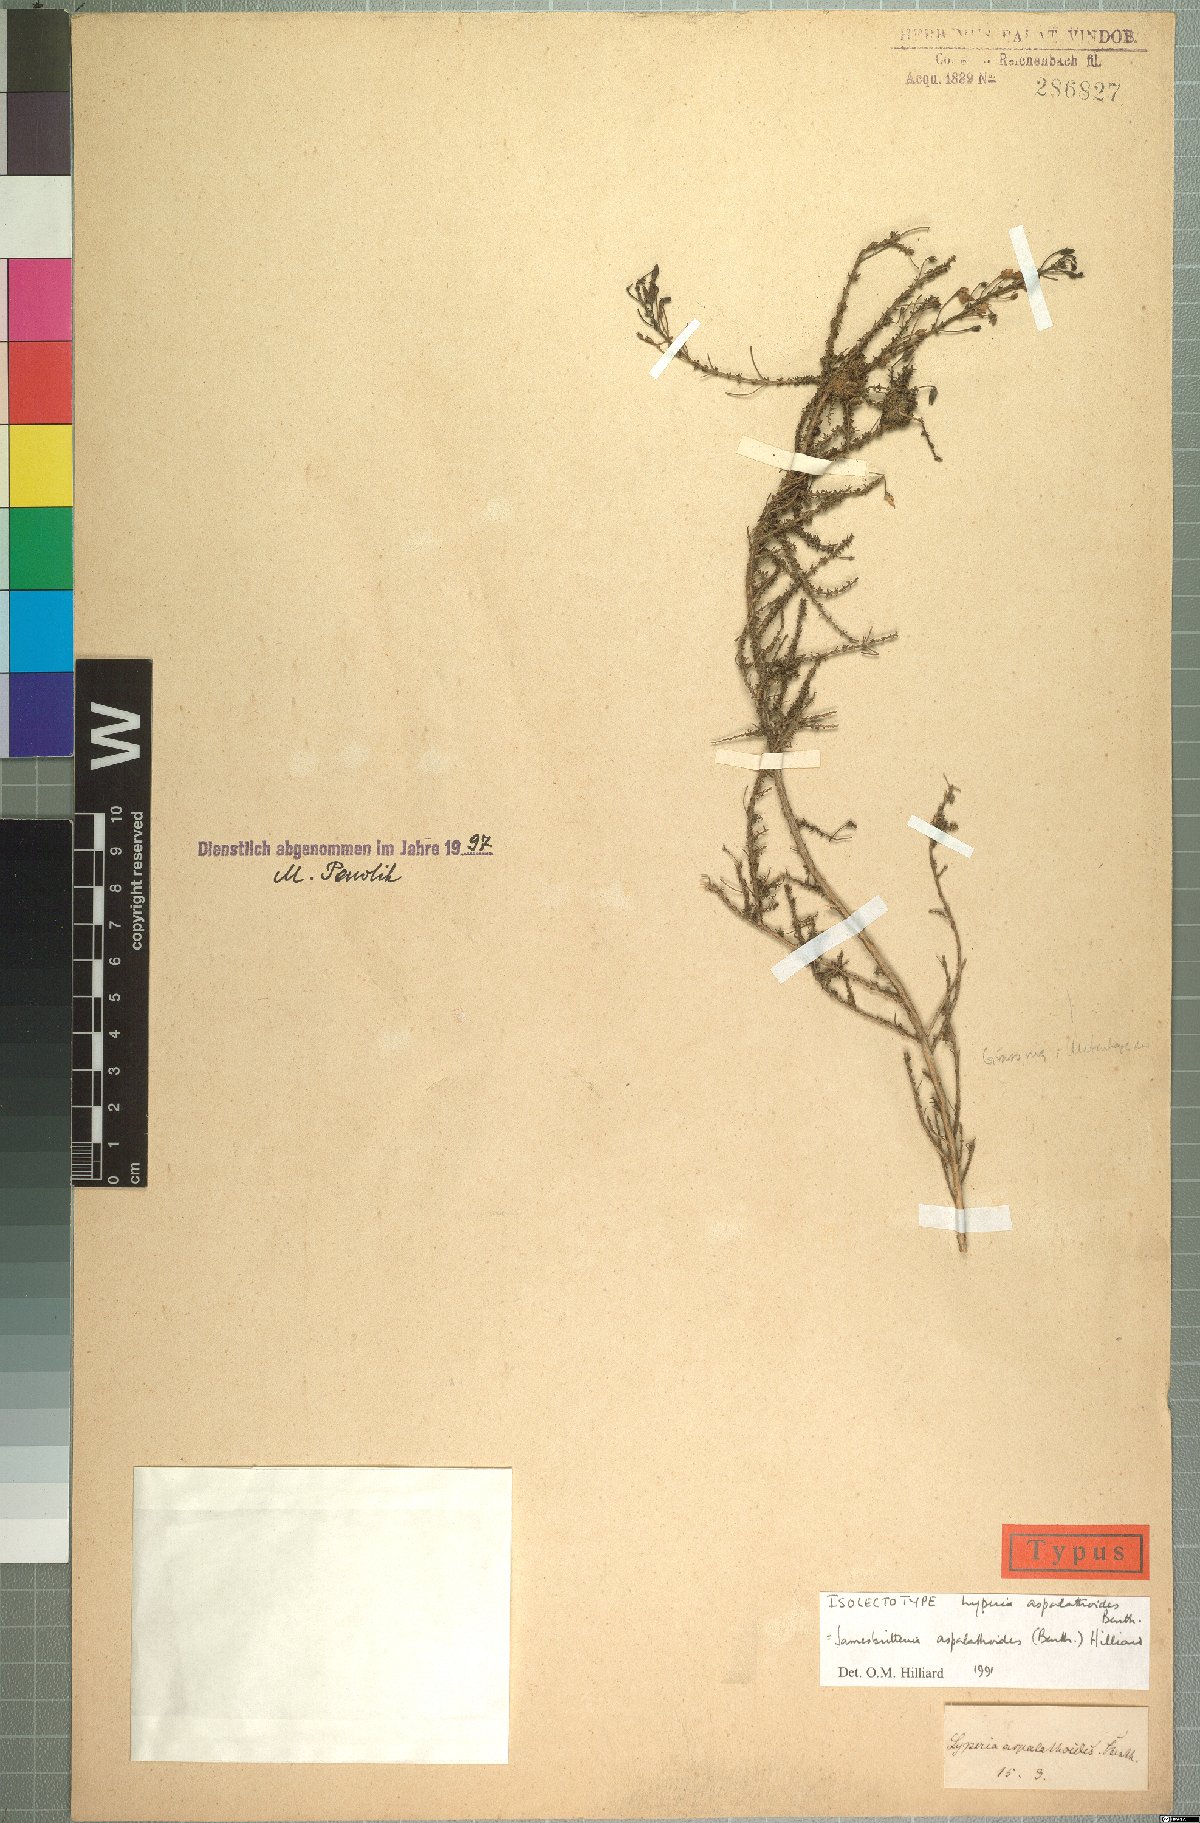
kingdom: Plantae
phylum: Tracheophyta
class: Magnoliopsida
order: Lamiales
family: Scrophulariaceae
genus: Jamesbrittenia
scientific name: Jamesbrittenia aspalathoides
